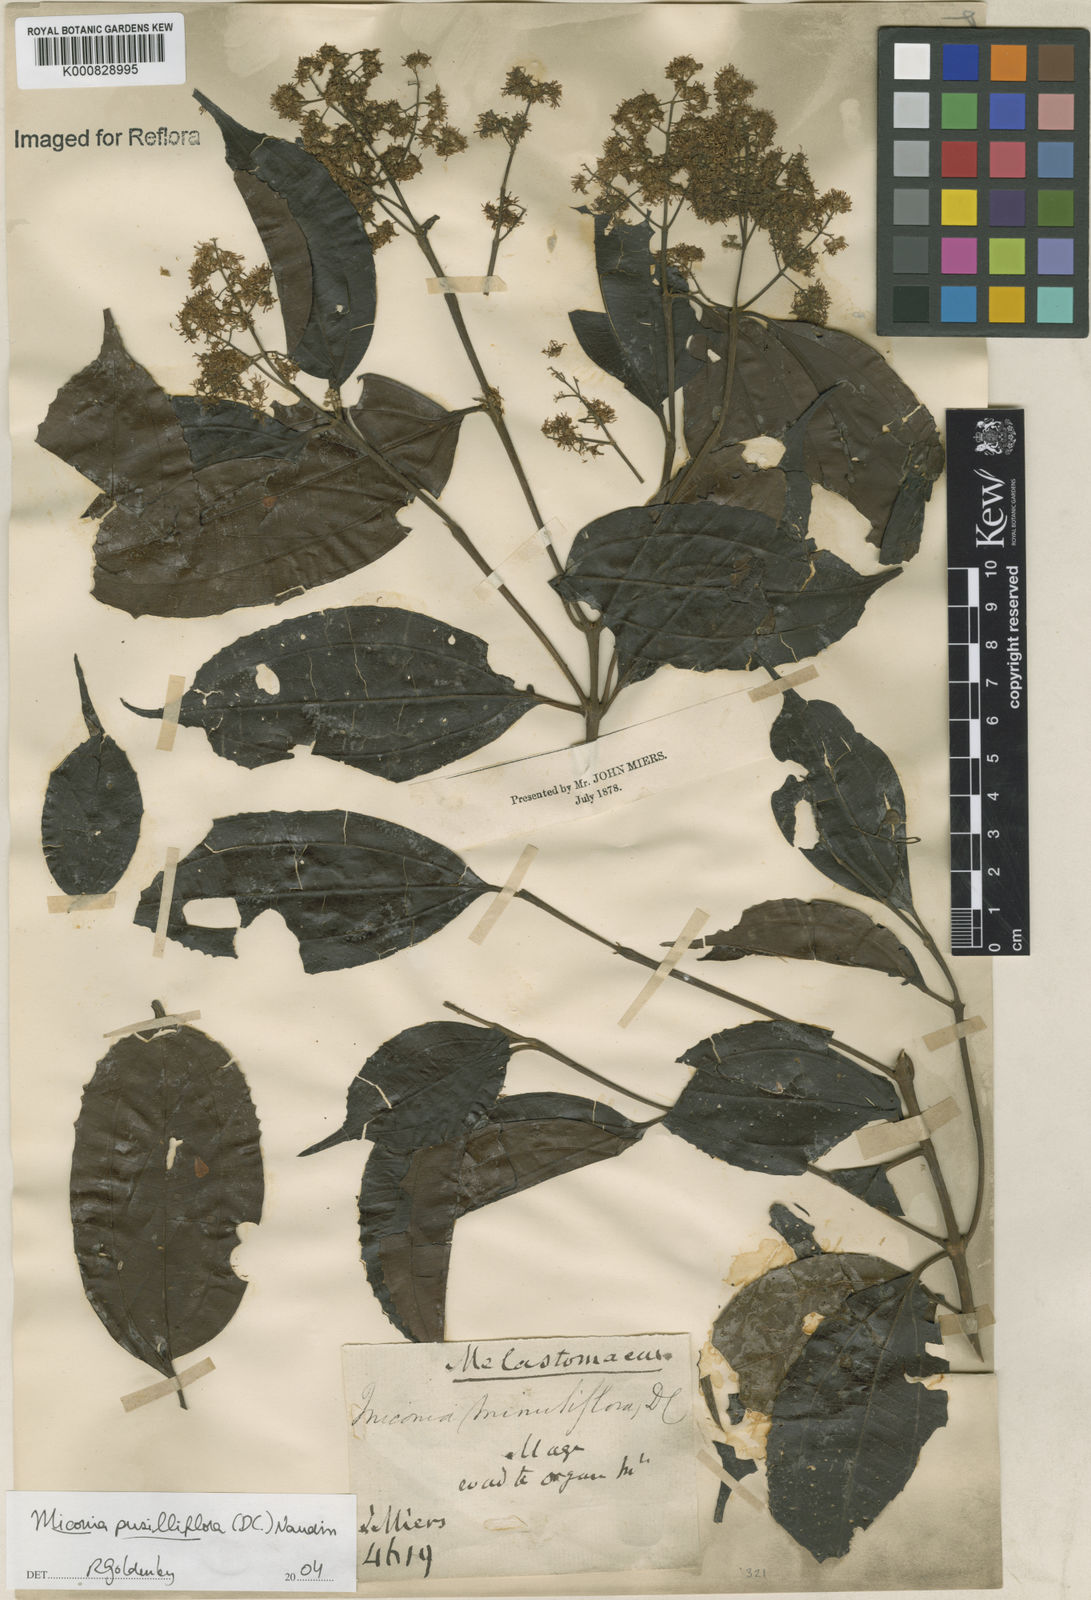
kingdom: Plantae
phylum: Tracheophyta
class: Magnoliopsida
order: Myrtales
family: Melastomataceae
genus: Miconia
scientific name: Miconia pusilliflora
